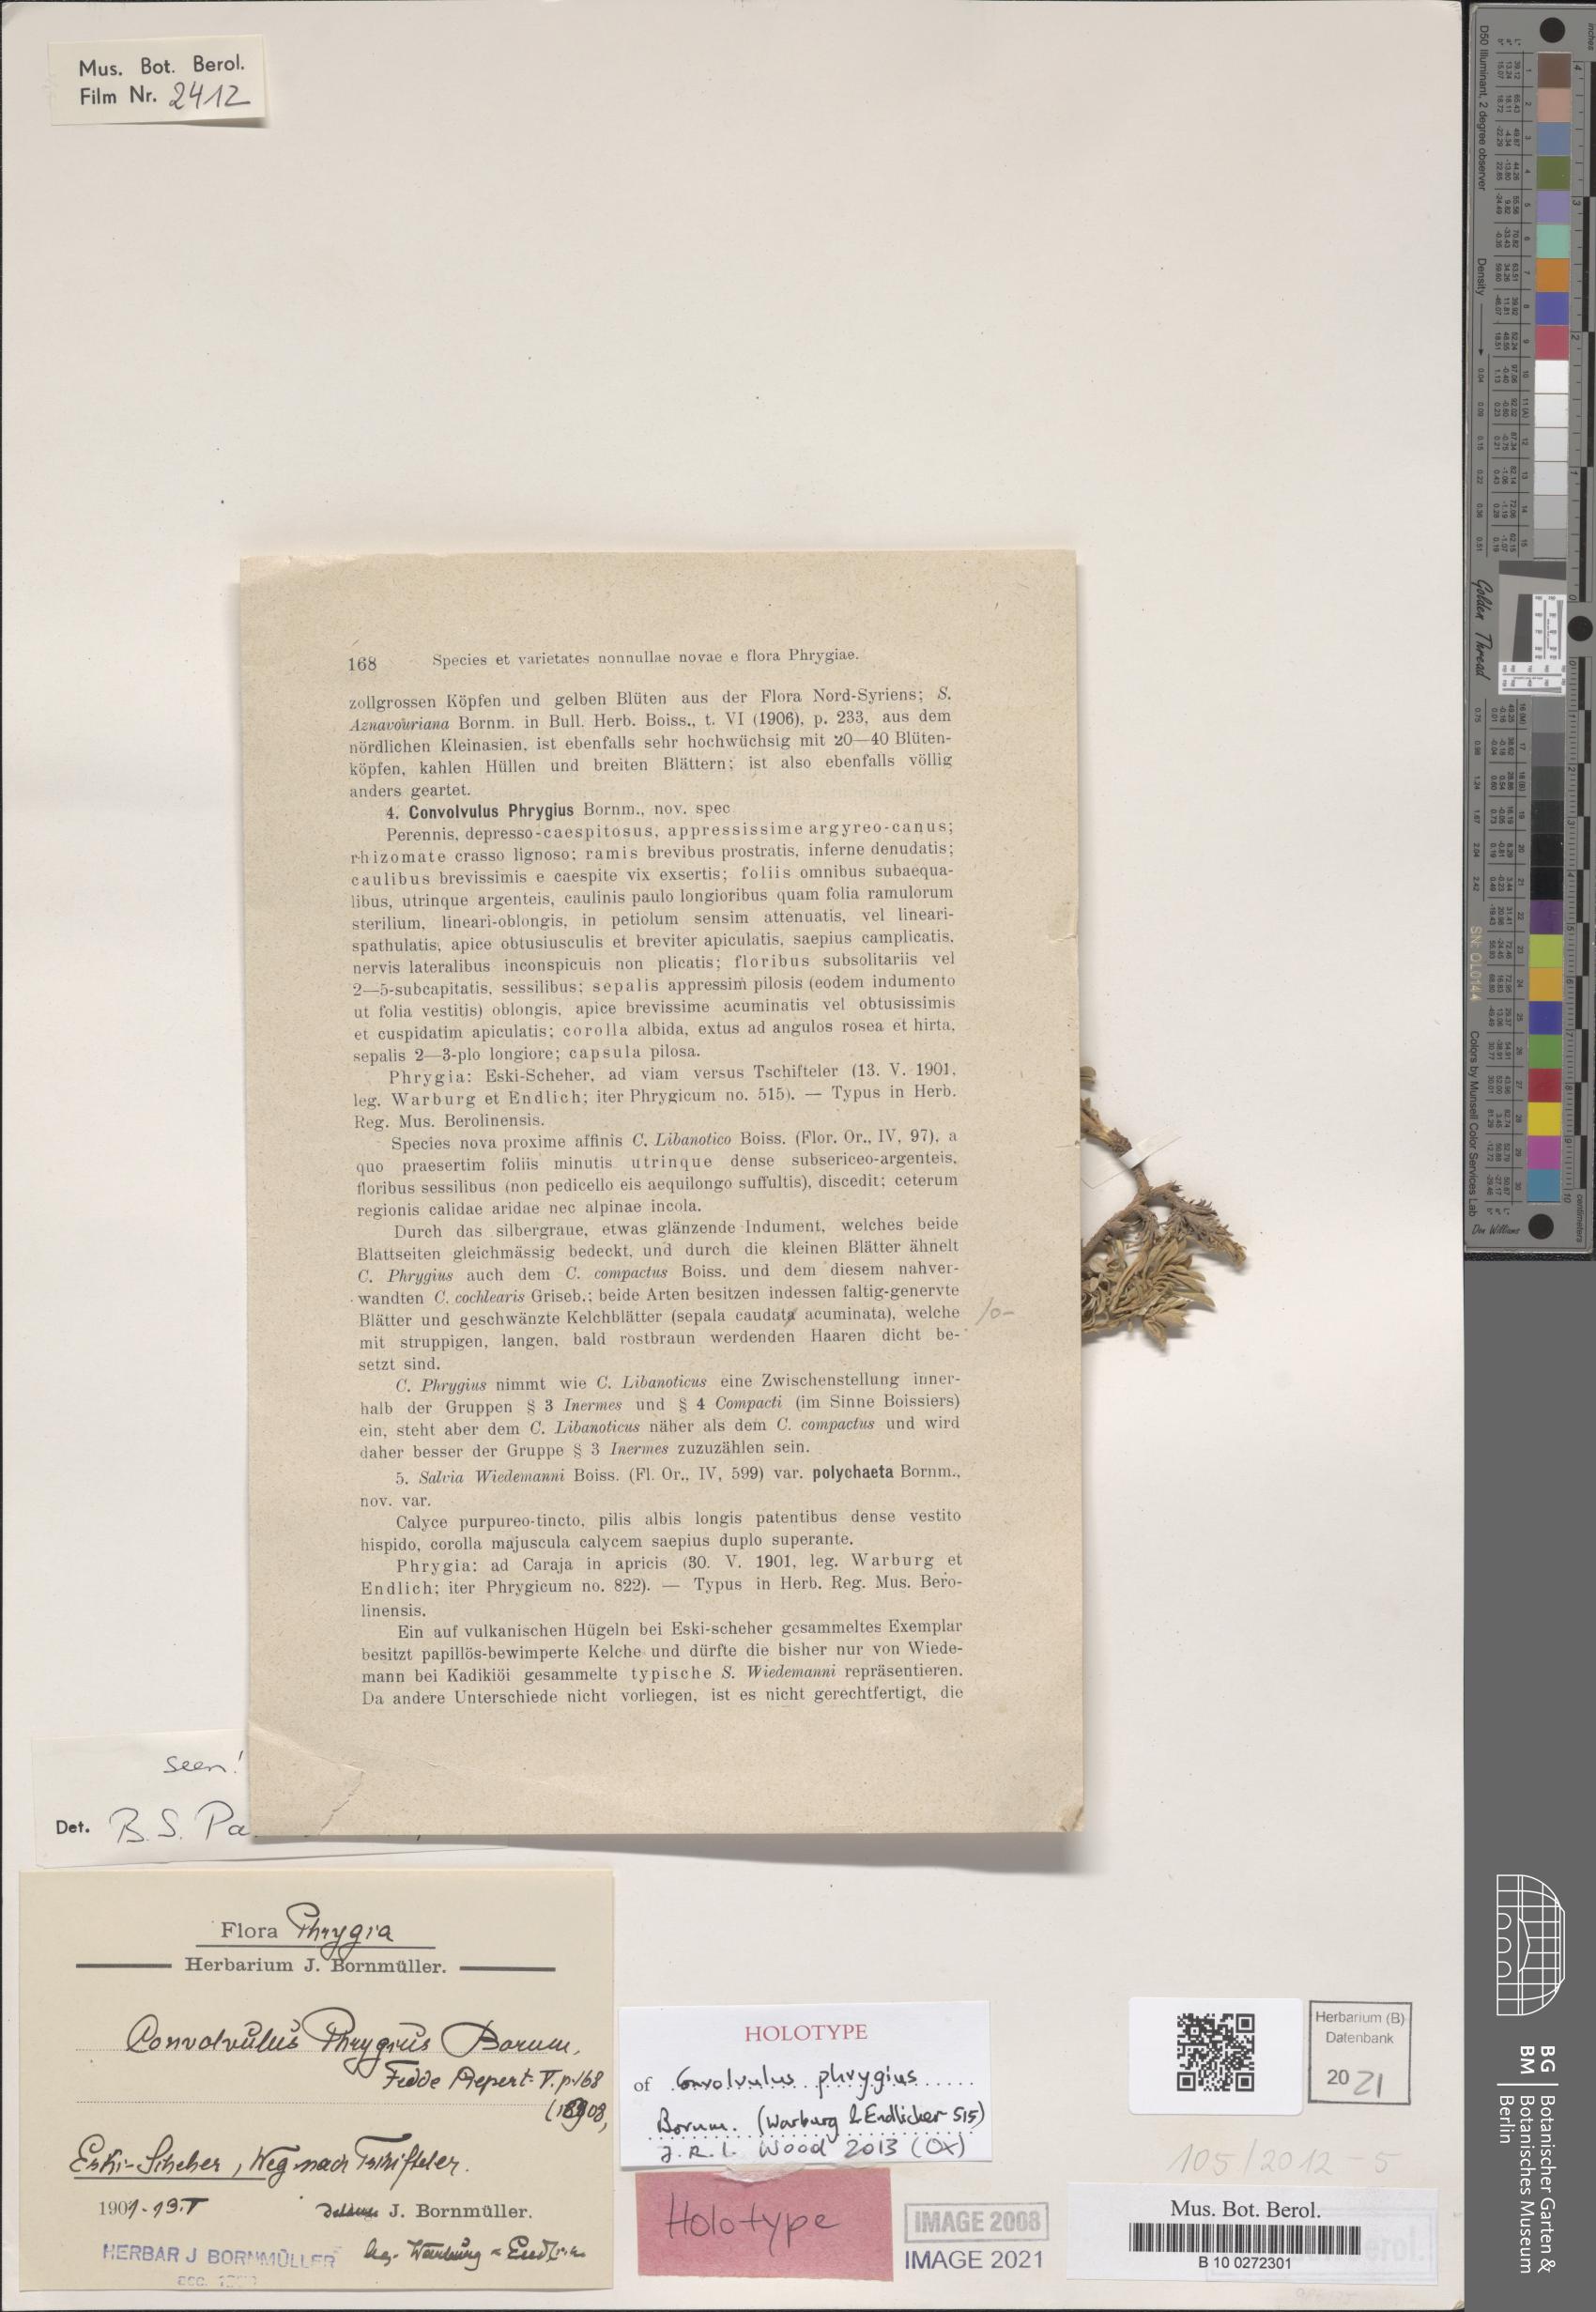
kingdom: Plantae
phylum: Tracheophyta
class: Magnoliopsida
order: Solanales
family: Convolvulaceae
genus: Convolvulus
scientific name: Convolvulus phrygius
